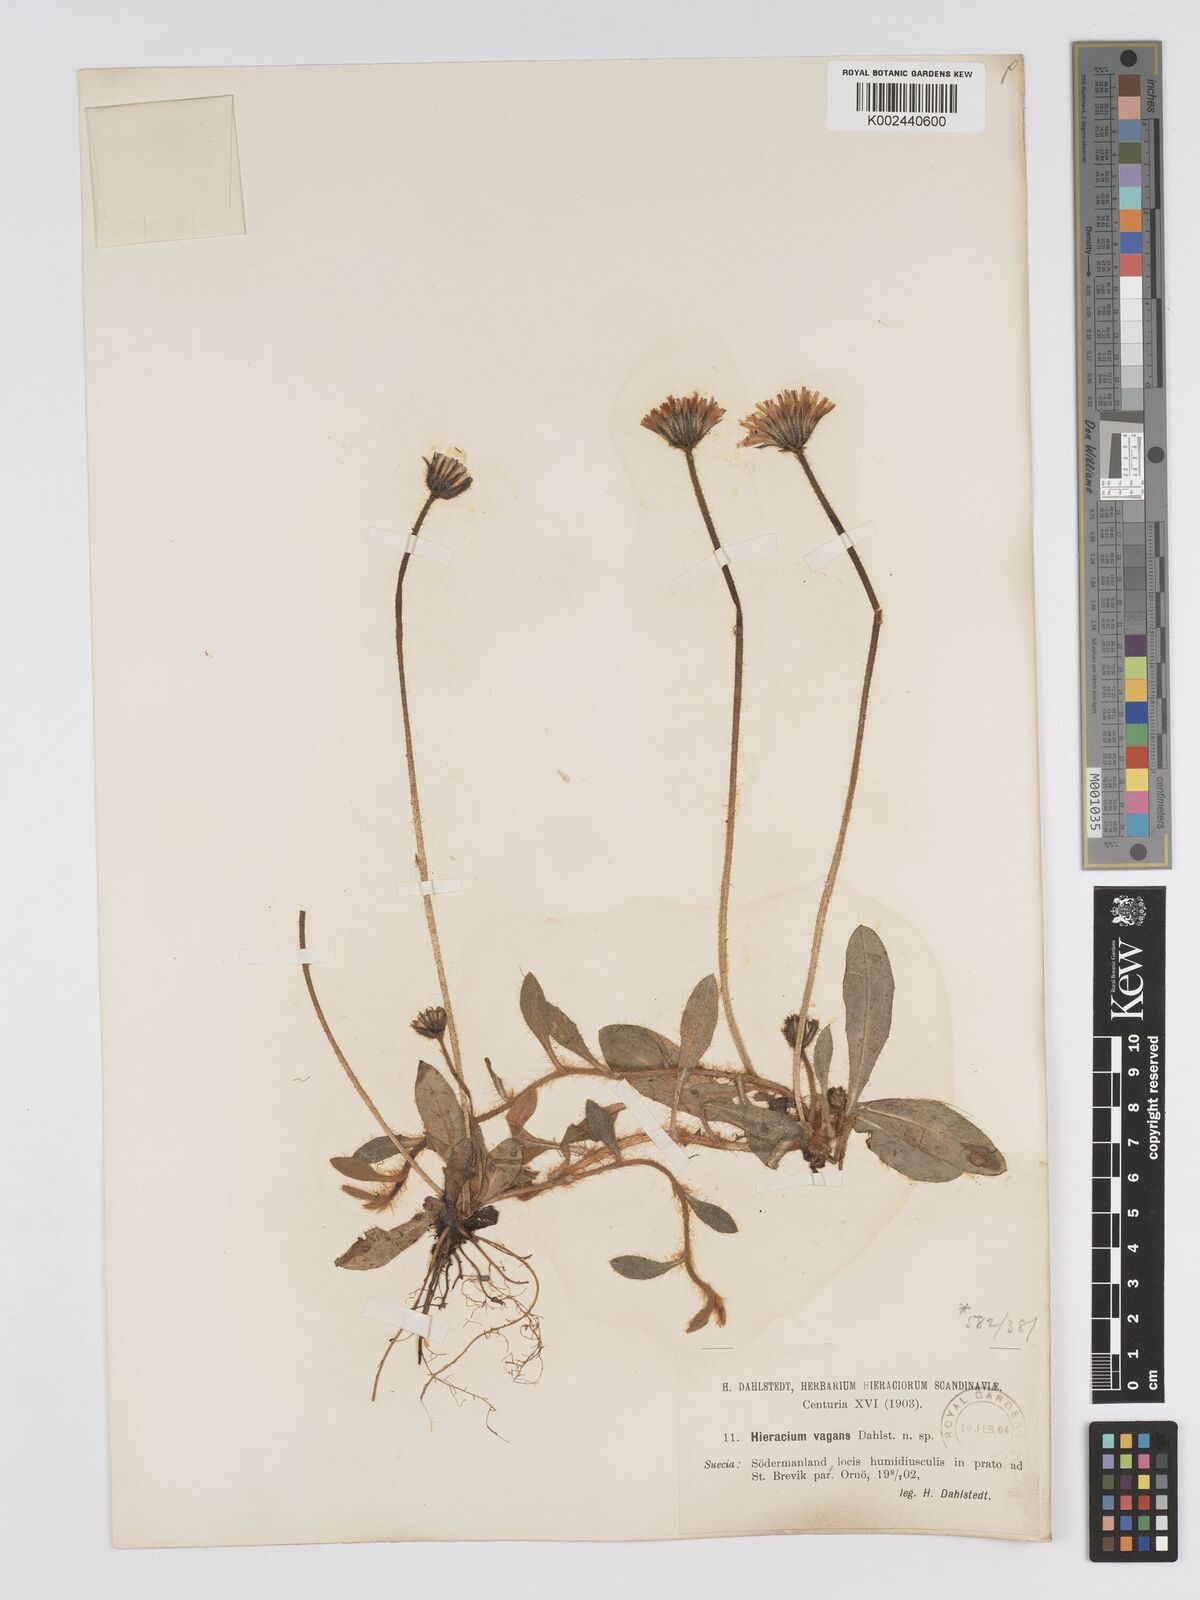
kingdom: Plantae
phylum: Tracheophyta
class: Magnoliopsida
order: Asterales
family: Asteraceae
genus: Pilosella
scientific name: Pilosella longisquama
